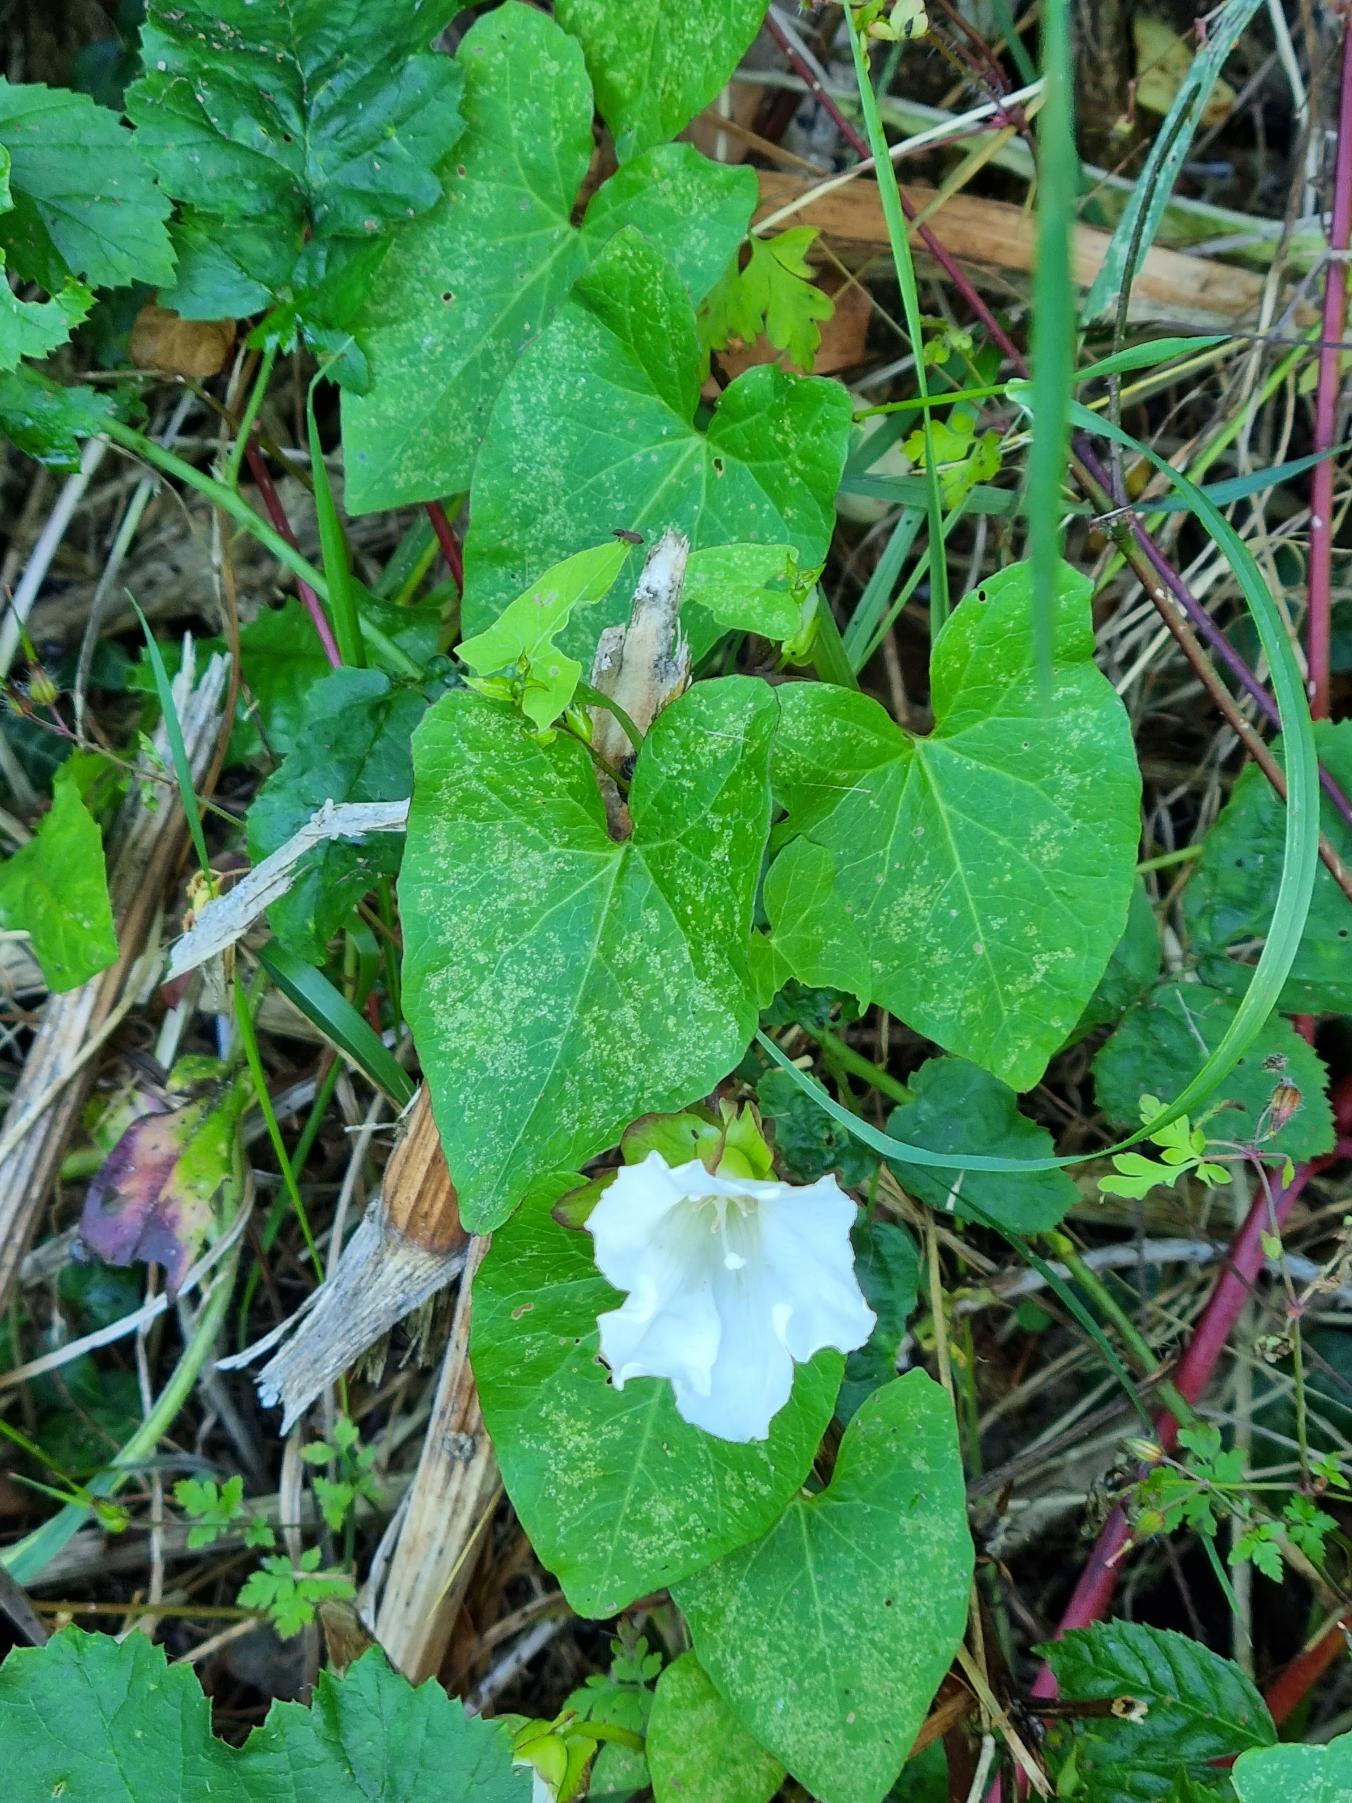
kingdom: Plantae
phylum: Tracheophyta
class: Magnoliopsida
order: Solanales
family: Convolvulaceae
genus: Calystegia
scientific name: Calystegia sepium
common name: Gærde-snerle
